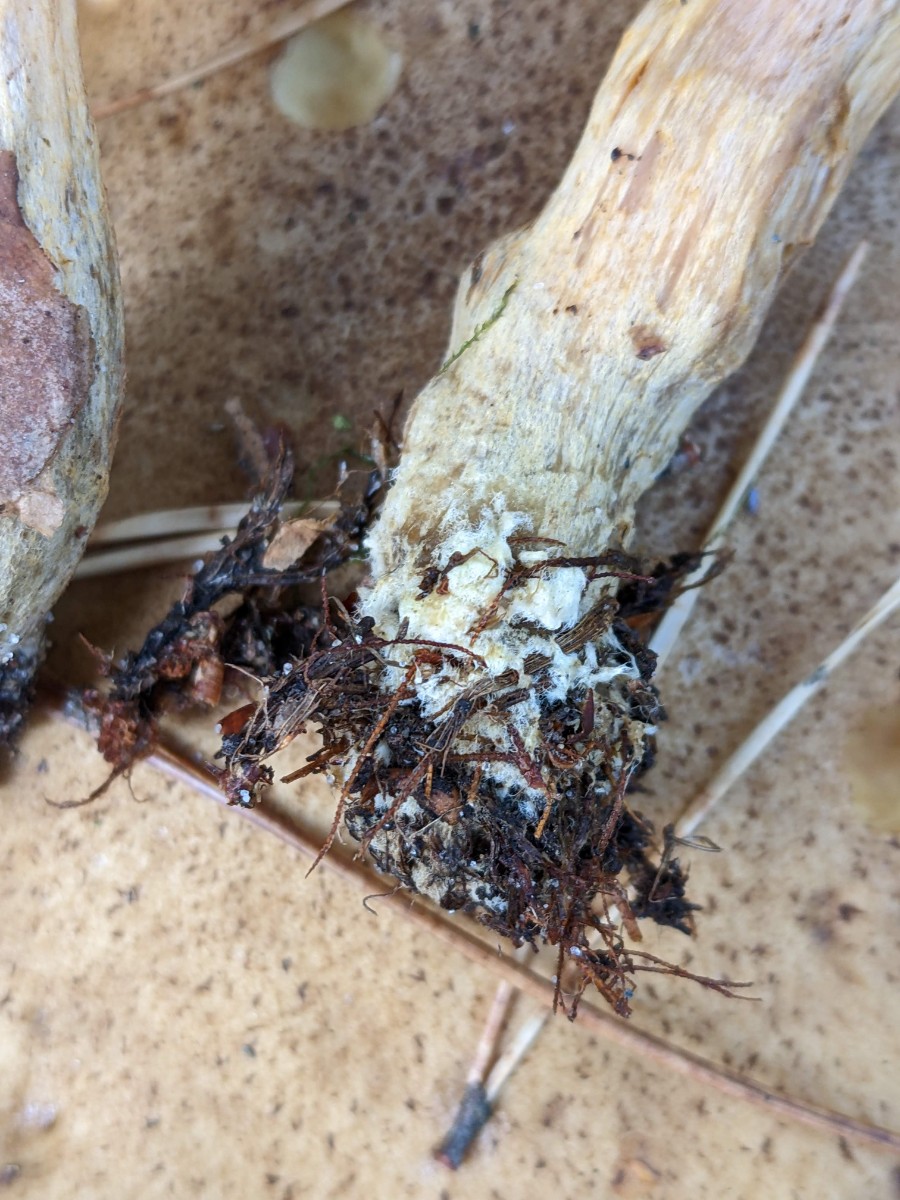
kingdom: Fungi
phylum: Basidiomycota
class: Agaricomycetes
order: Boletales
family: Gomphidiaceae
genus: Chroogomphus
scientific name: Chroogomphus rutilus
